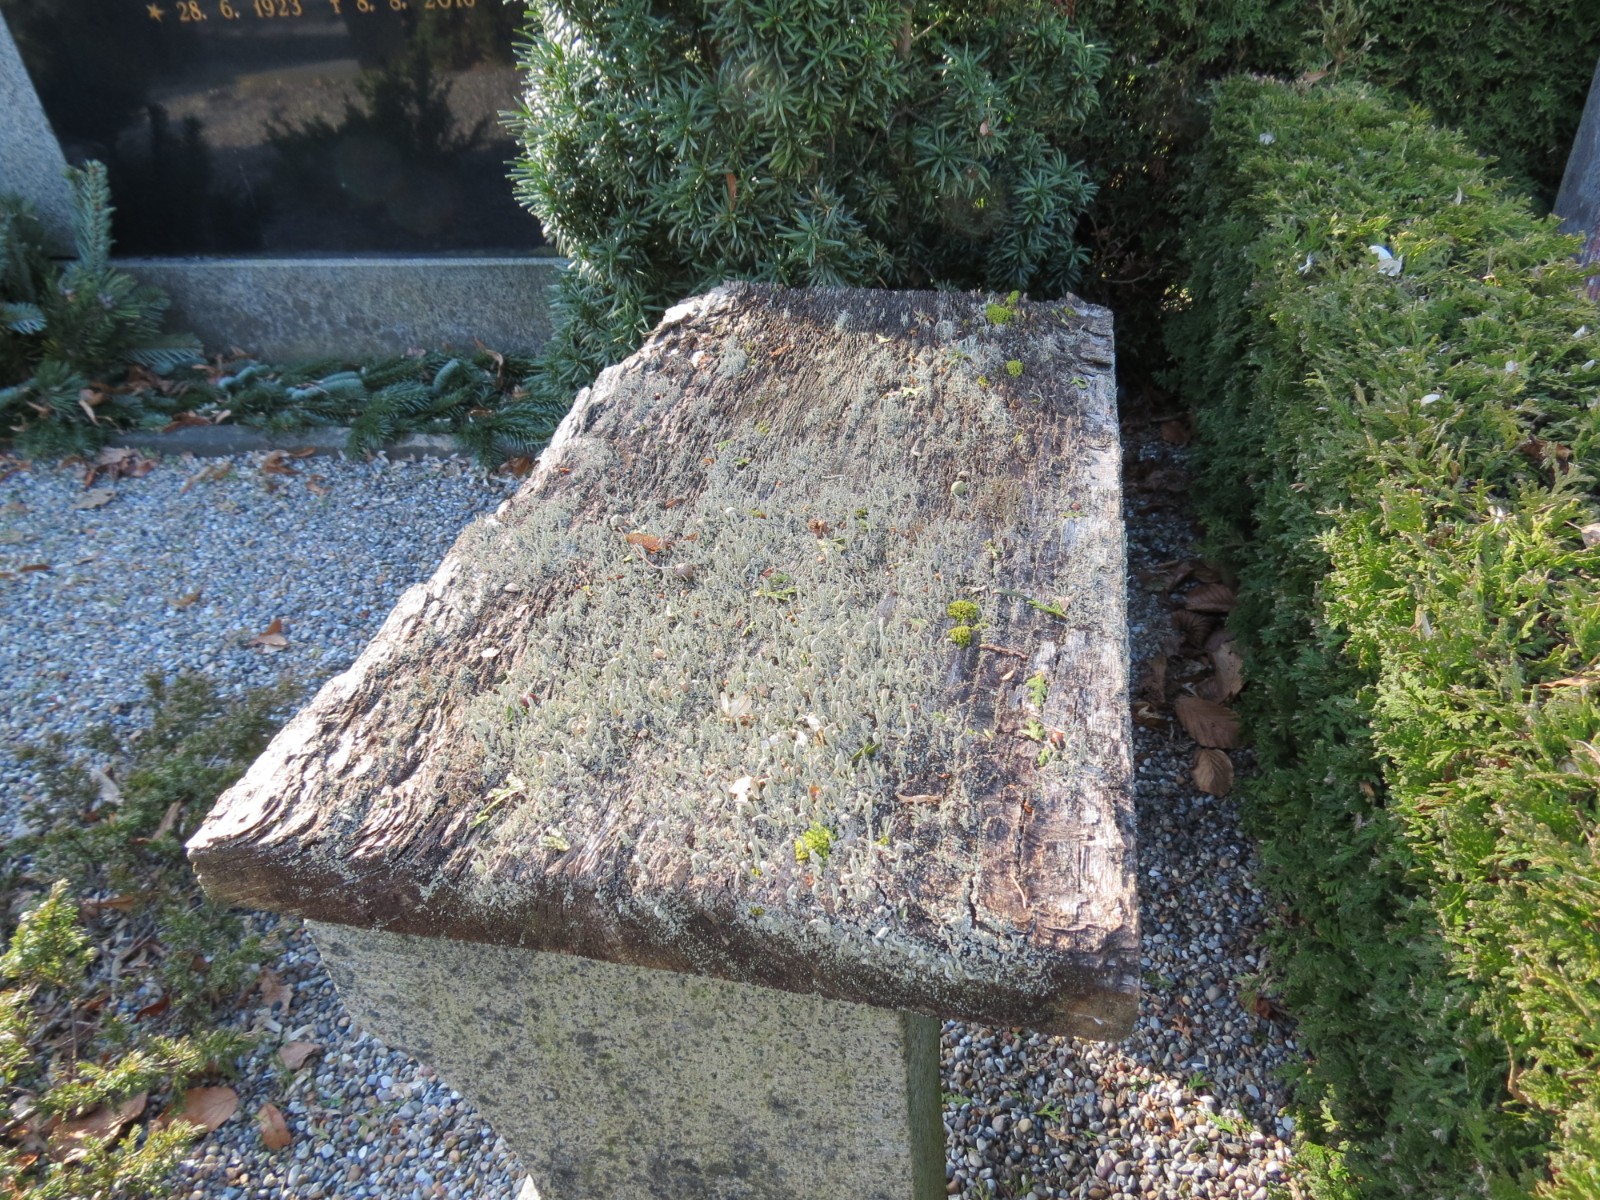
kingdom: Fungi
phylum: Ascomycota
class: Lecanoromycetes
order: Lecanorales
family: Cladoniaceae
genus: Cladonia
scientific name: Cladonia macilenta
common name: indsvunden bægerlav
